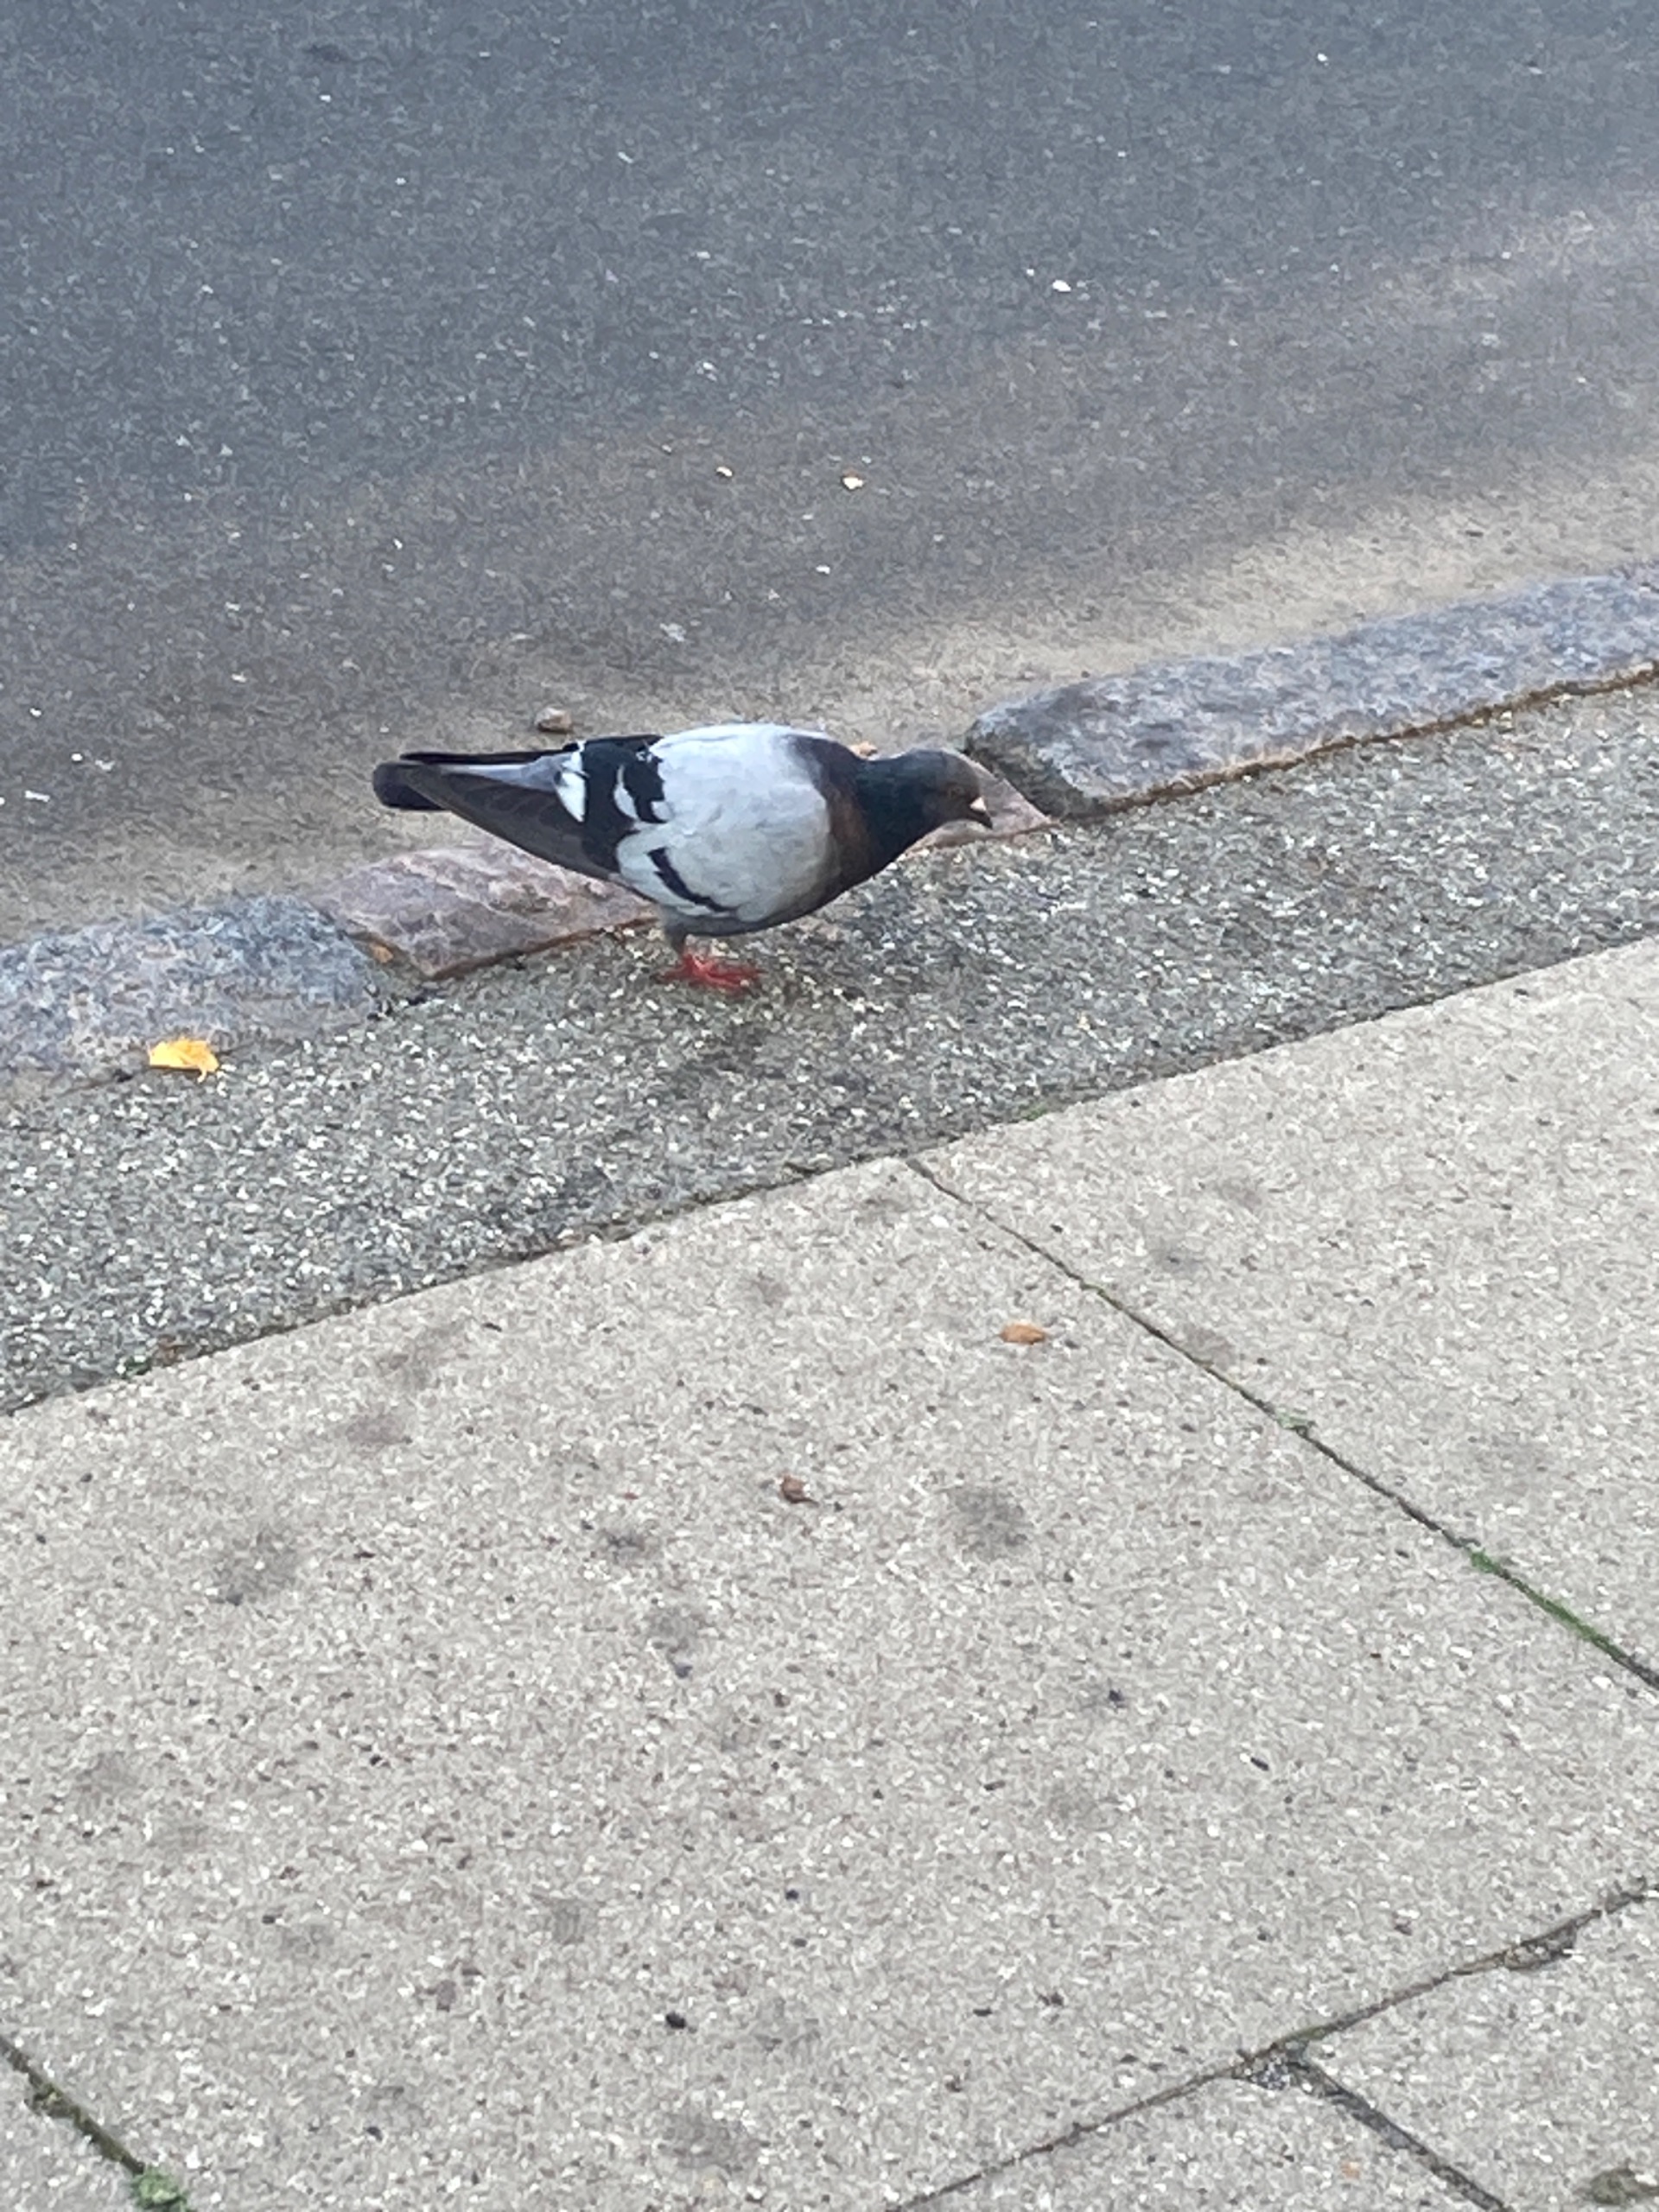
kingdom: Animalia
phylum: Chordata
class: Aves
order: Columbiformes
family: Columbidae
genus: Columba
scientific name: Columba livia
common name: Klippedue
